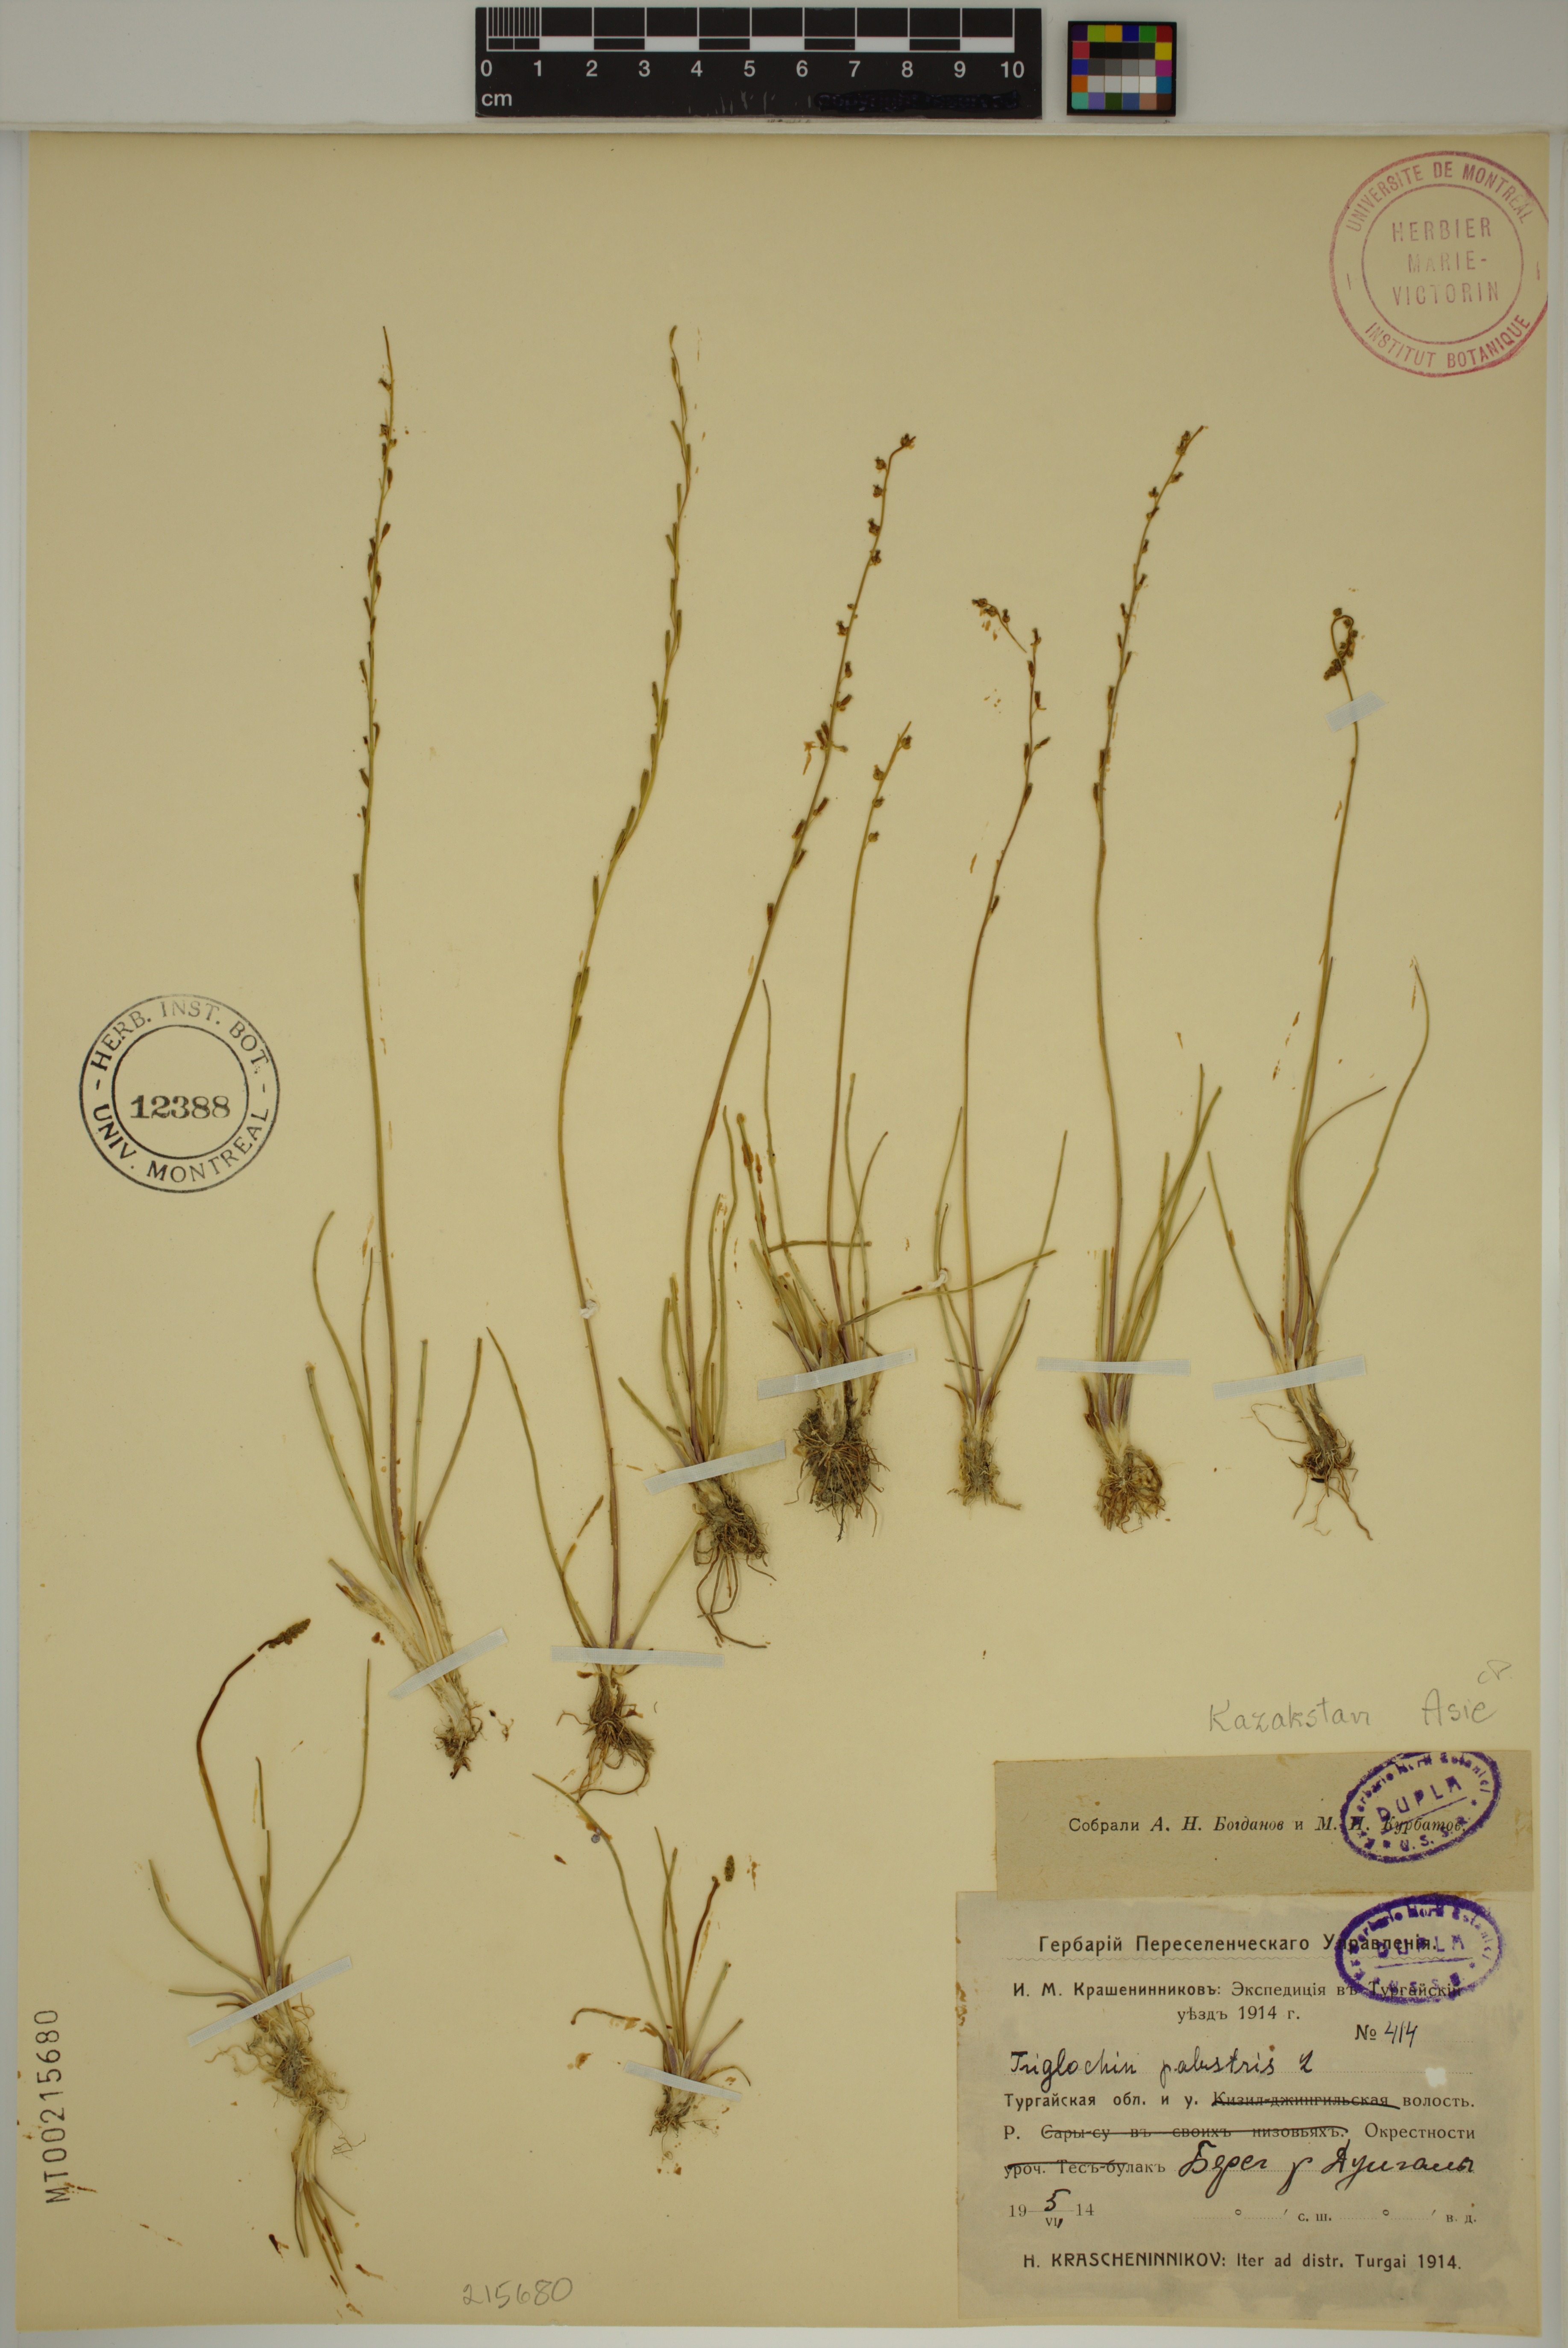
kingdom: Plantae
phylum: Tracheophyta
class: Liliopsida
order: Alismatales
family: Juncaginaceae
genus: Triglochin
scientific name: Triglochin palustris
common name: Marsh arrowgrass
